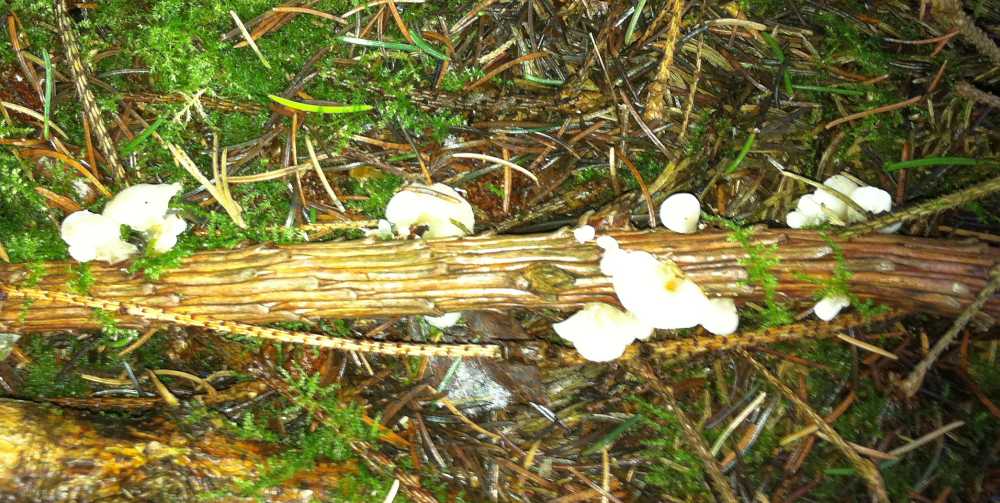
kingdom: Fungi
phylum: Basidiomycota
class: Agaricomycetes
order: Agaricales
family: Mycenaceae
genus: Panellus
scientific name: Panellus mitis
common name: mild epaulethat
